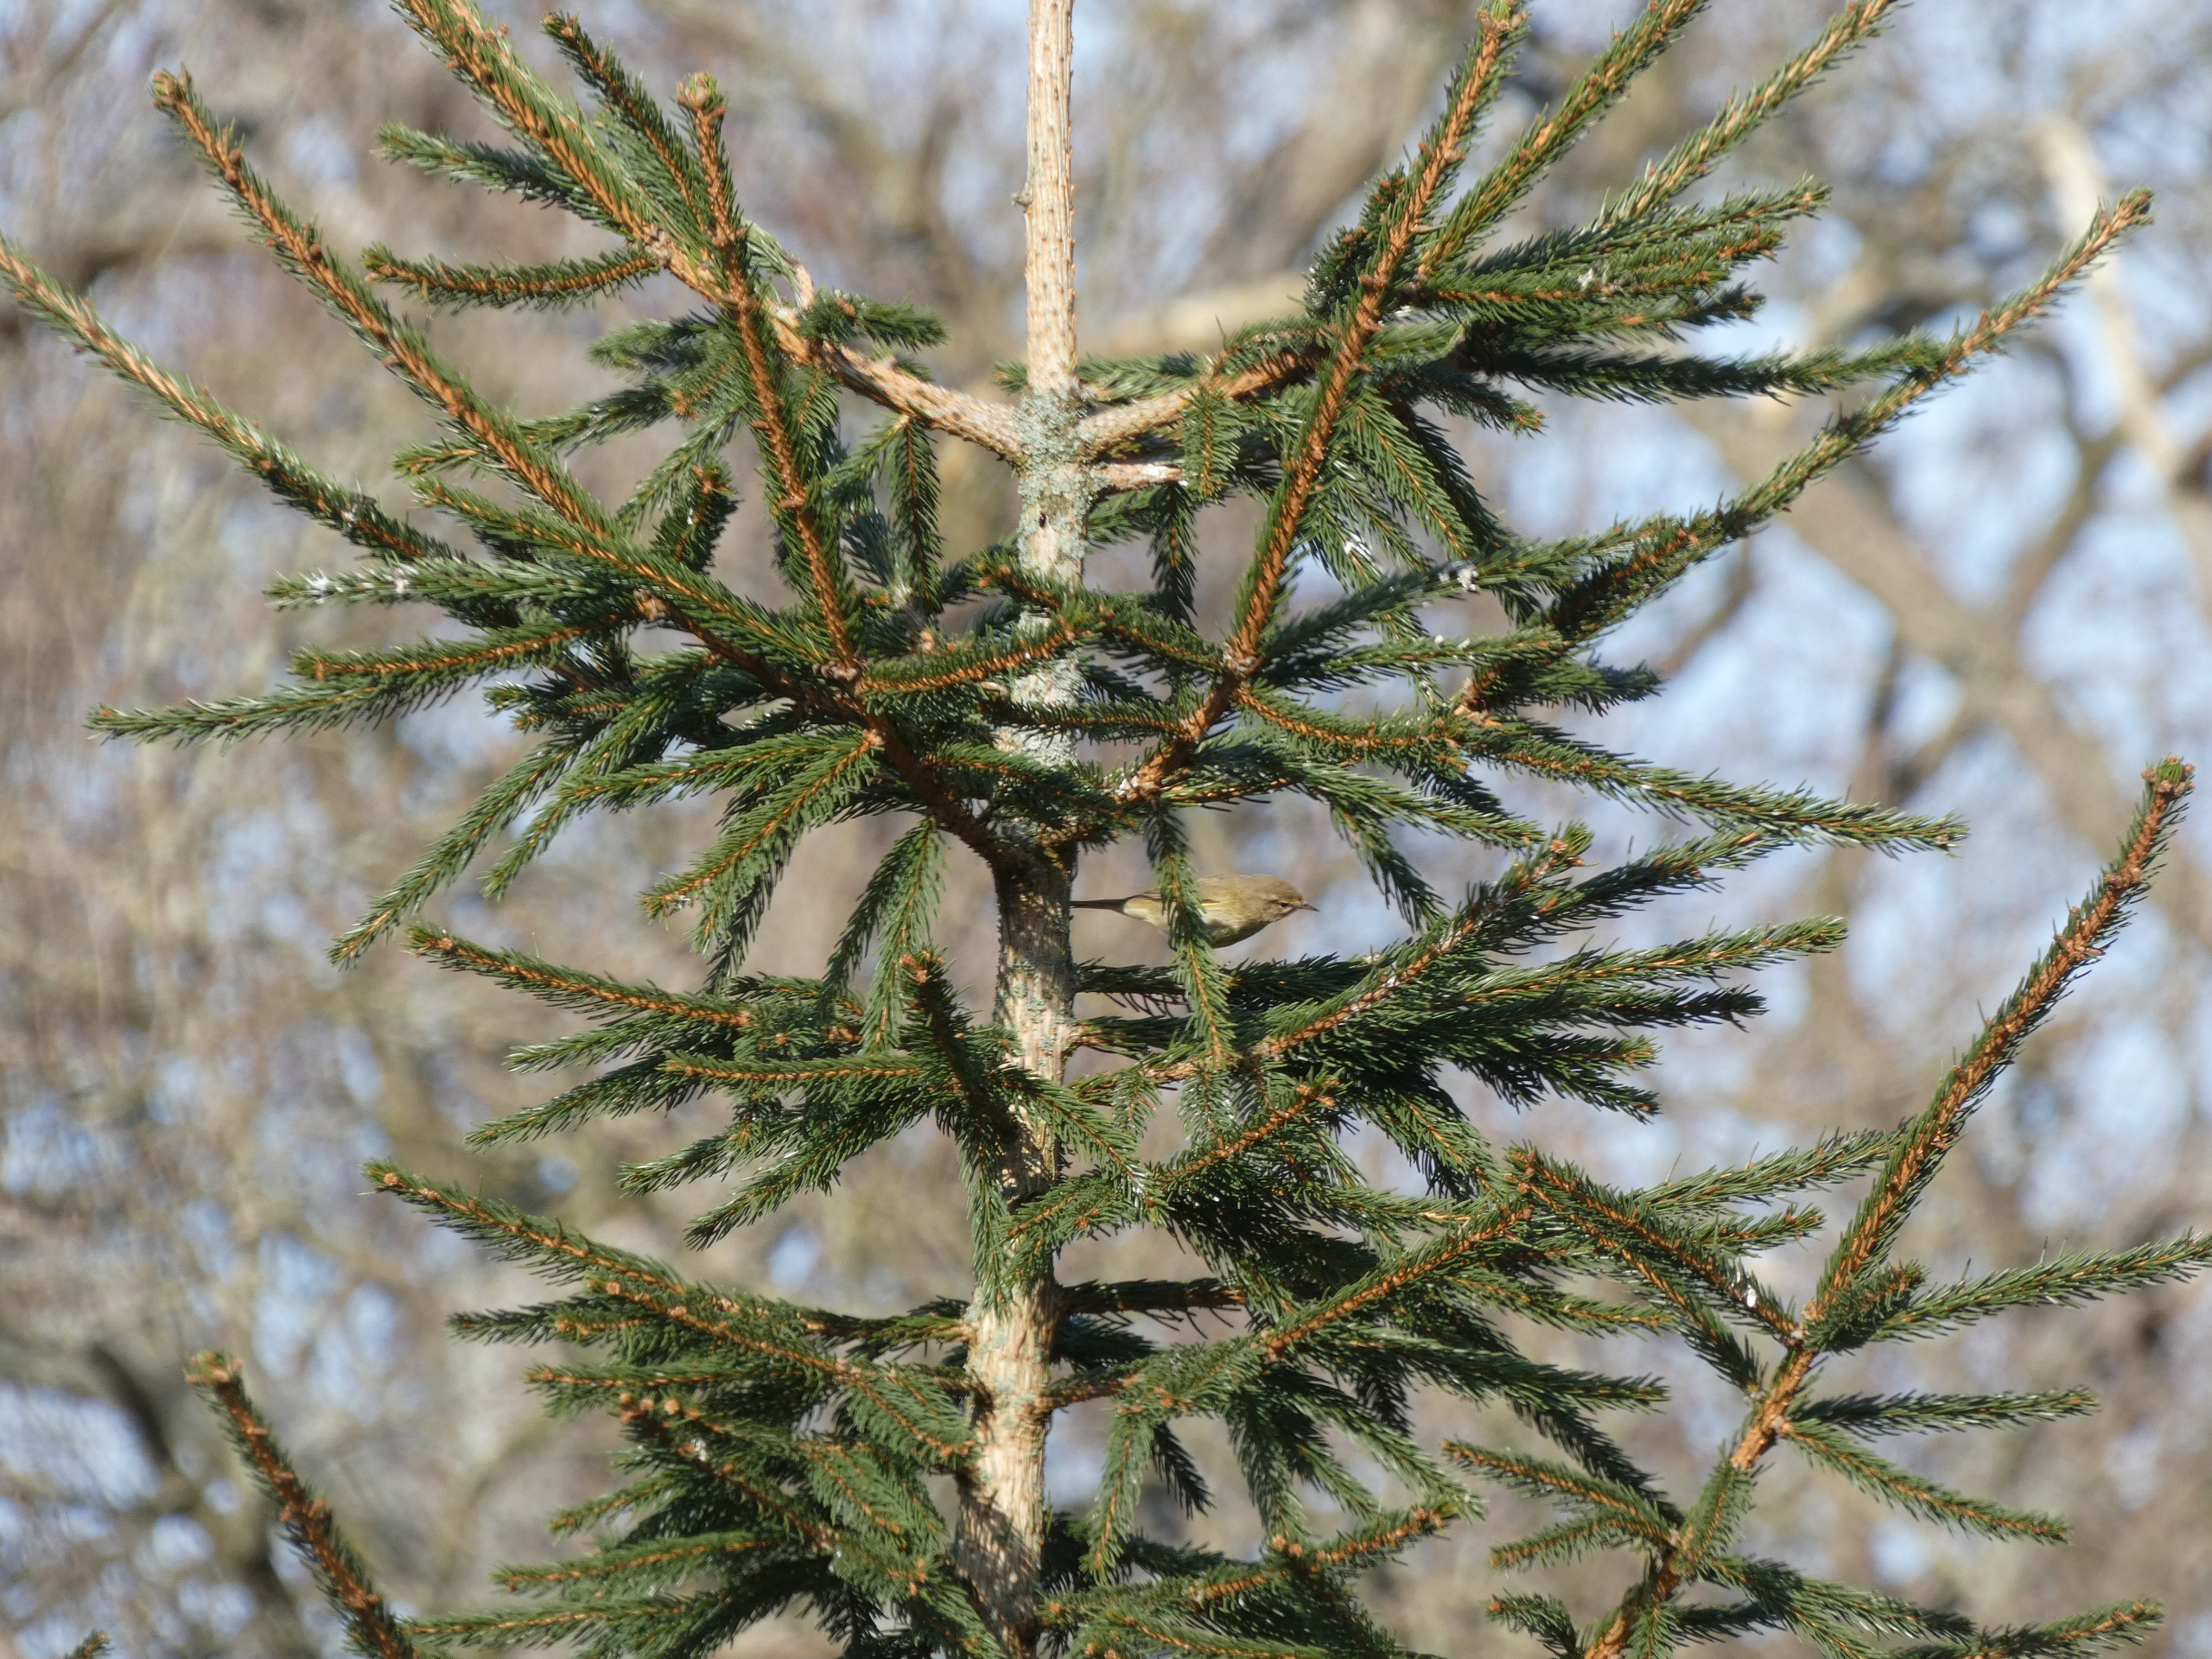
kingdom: Animalia
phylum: Chordata
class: Aves
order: Passeriformes
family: Phylloscopidae
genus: Phylloscopus
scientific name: Phylloscopus collybita
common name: Gransanger
